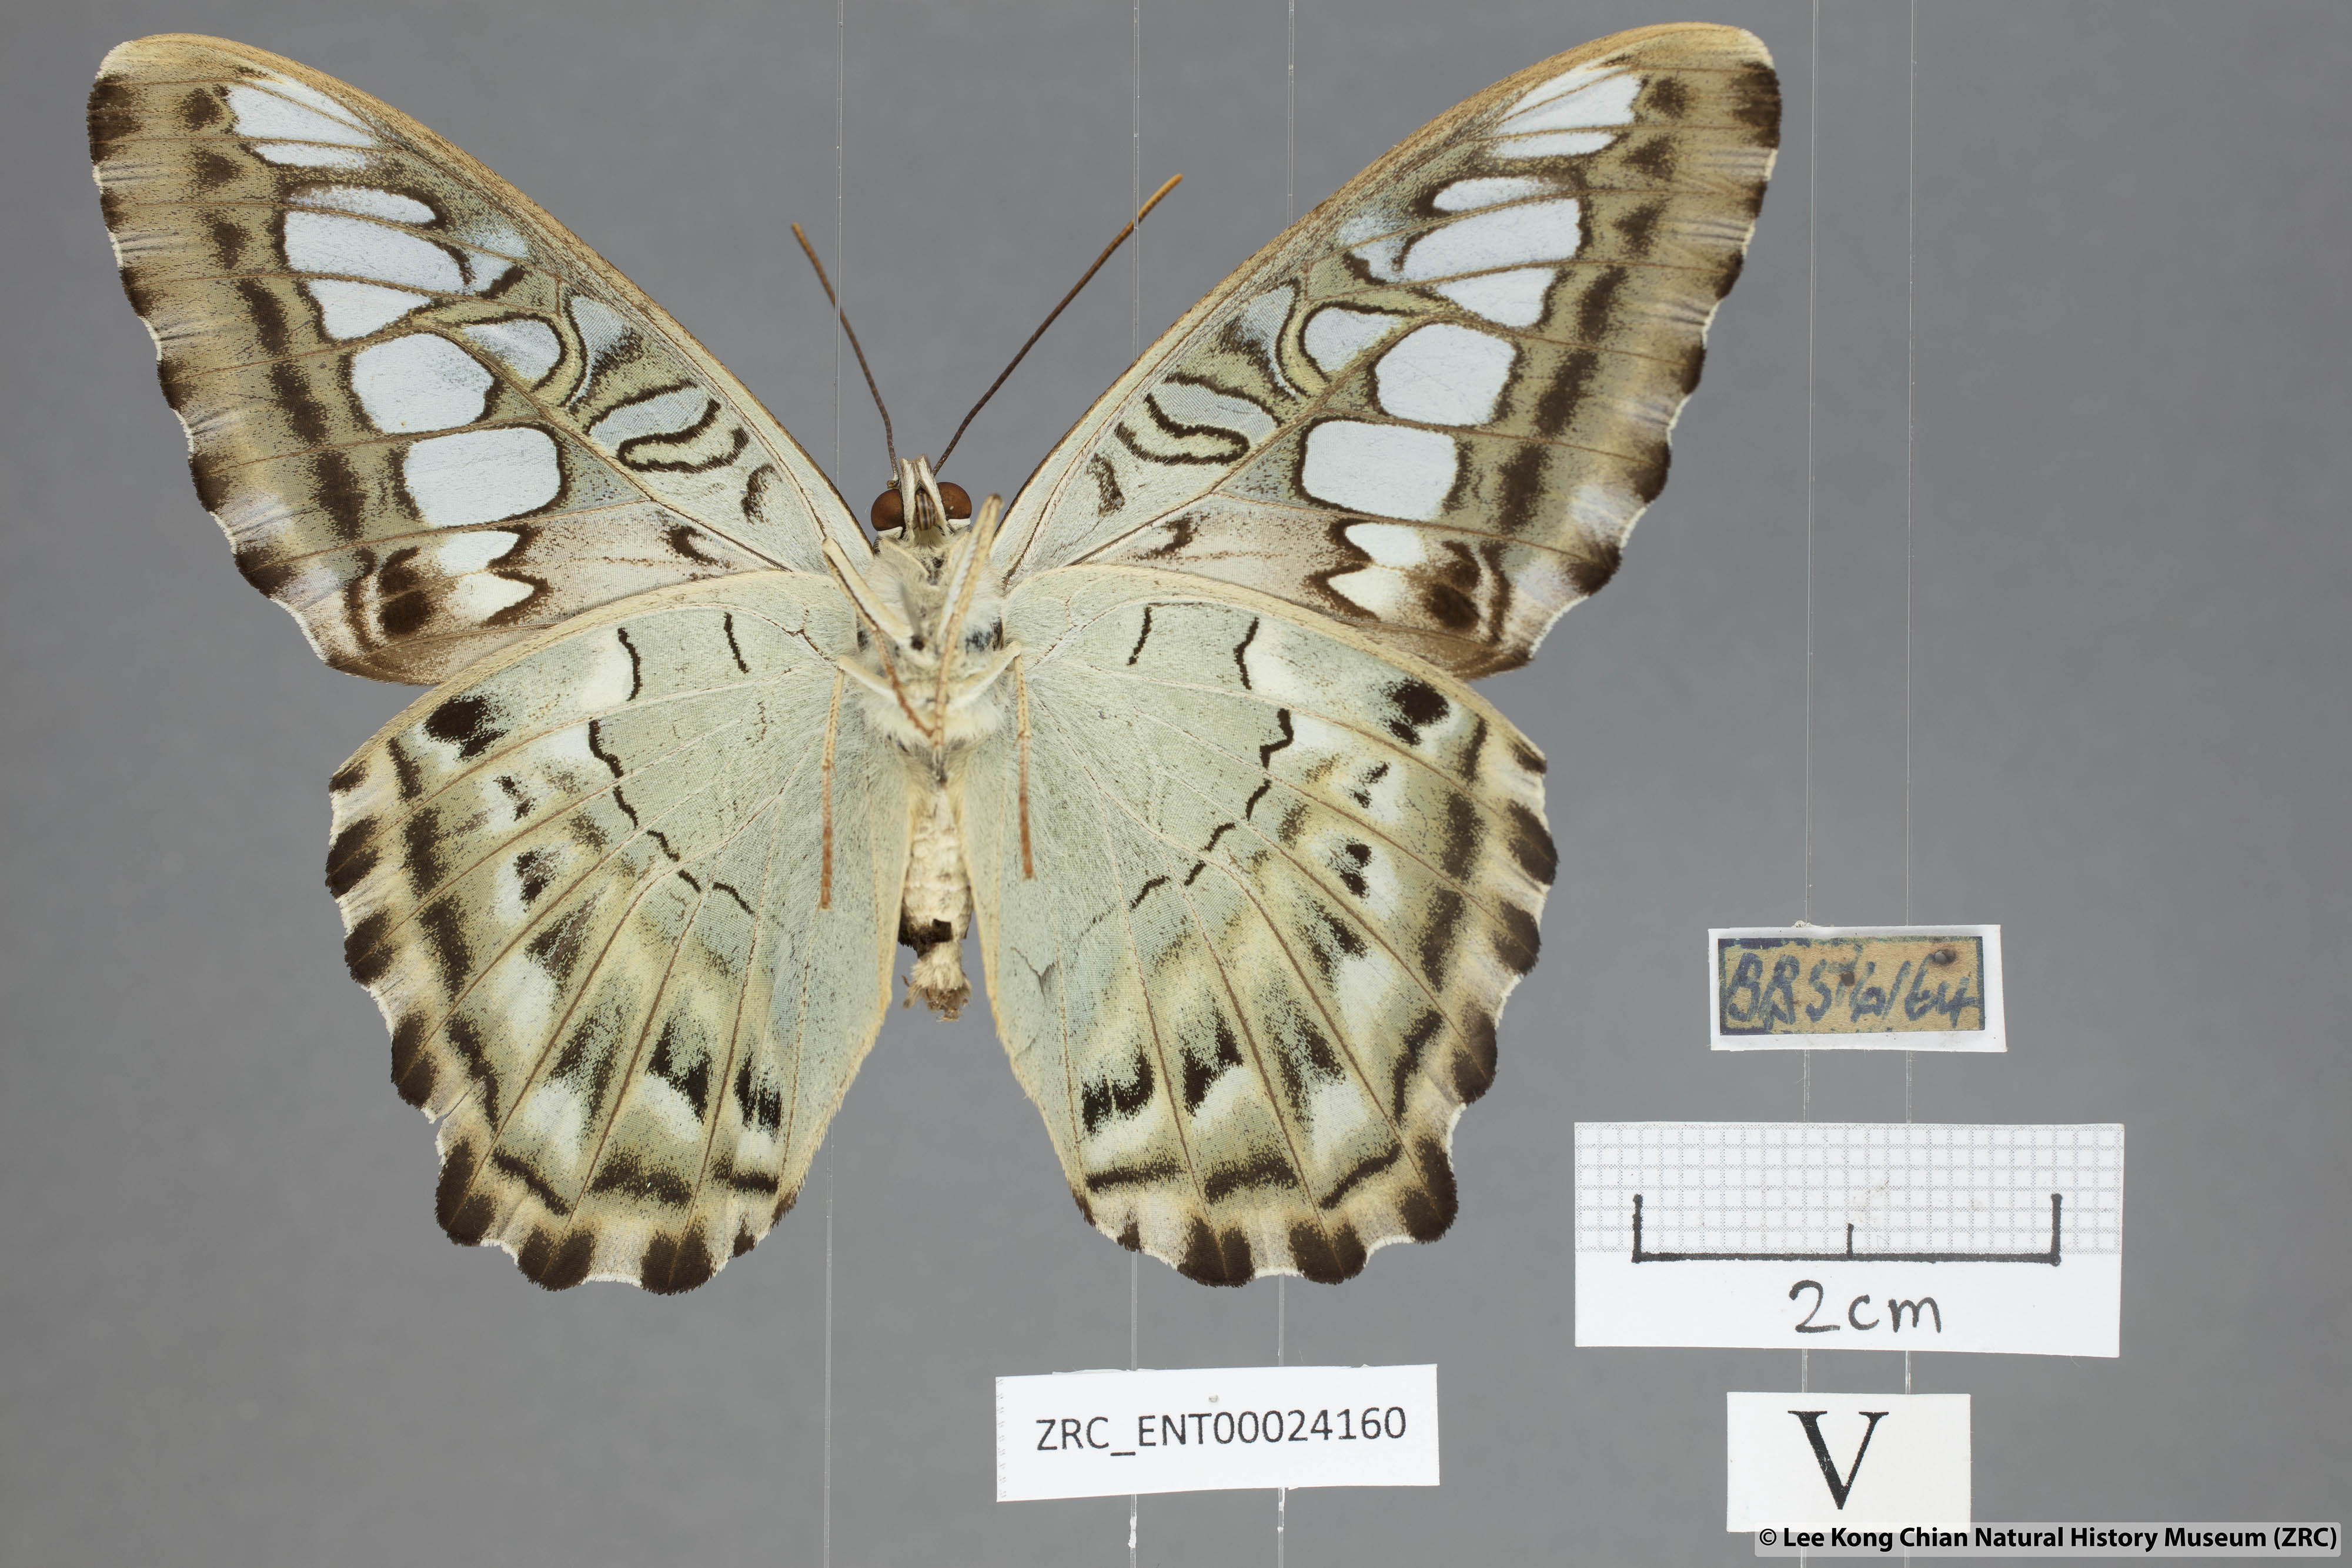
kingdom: Animalia
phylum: Arthropoda
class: Insecta
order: Lepidoptera
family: Nymphalidae
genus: Kallima
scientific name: Kallima sylvia
